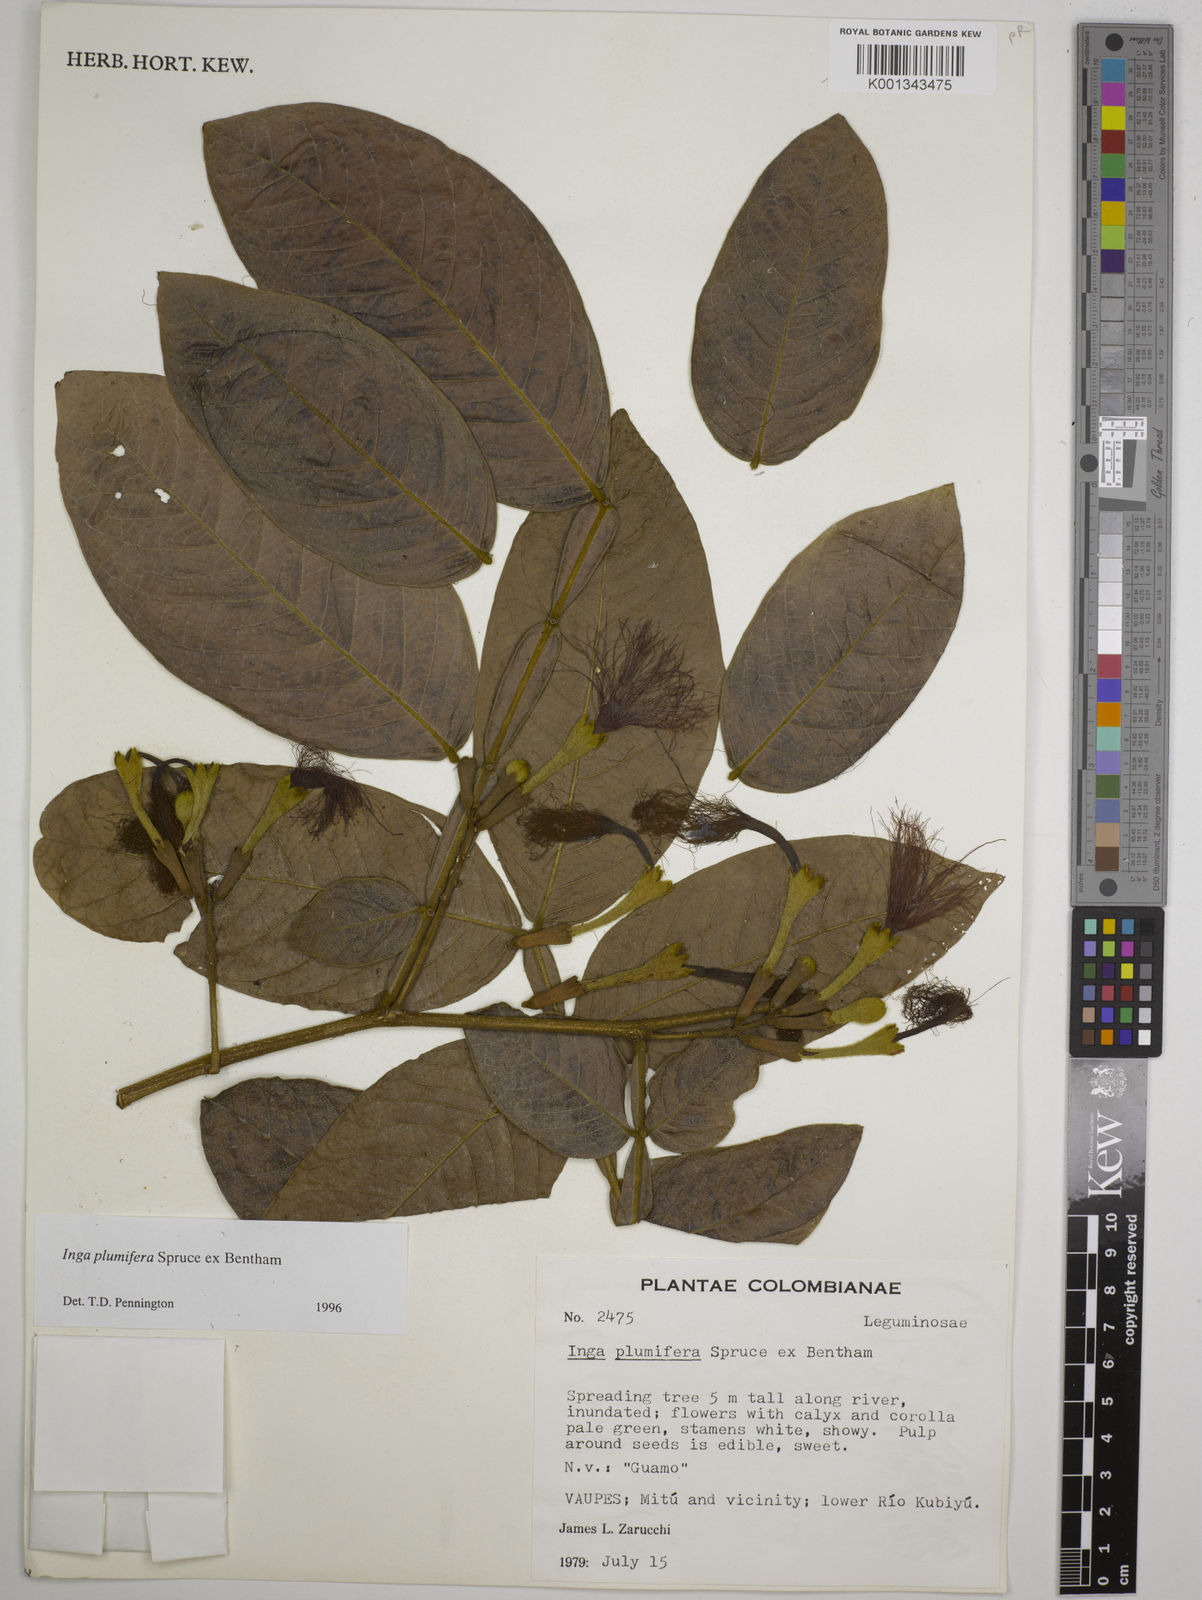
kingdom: Plantae
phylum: Tracheophyta
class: Magnoliopsida
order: Fabales
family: Fabaceae
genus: Inga
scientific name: Inga plumifera
